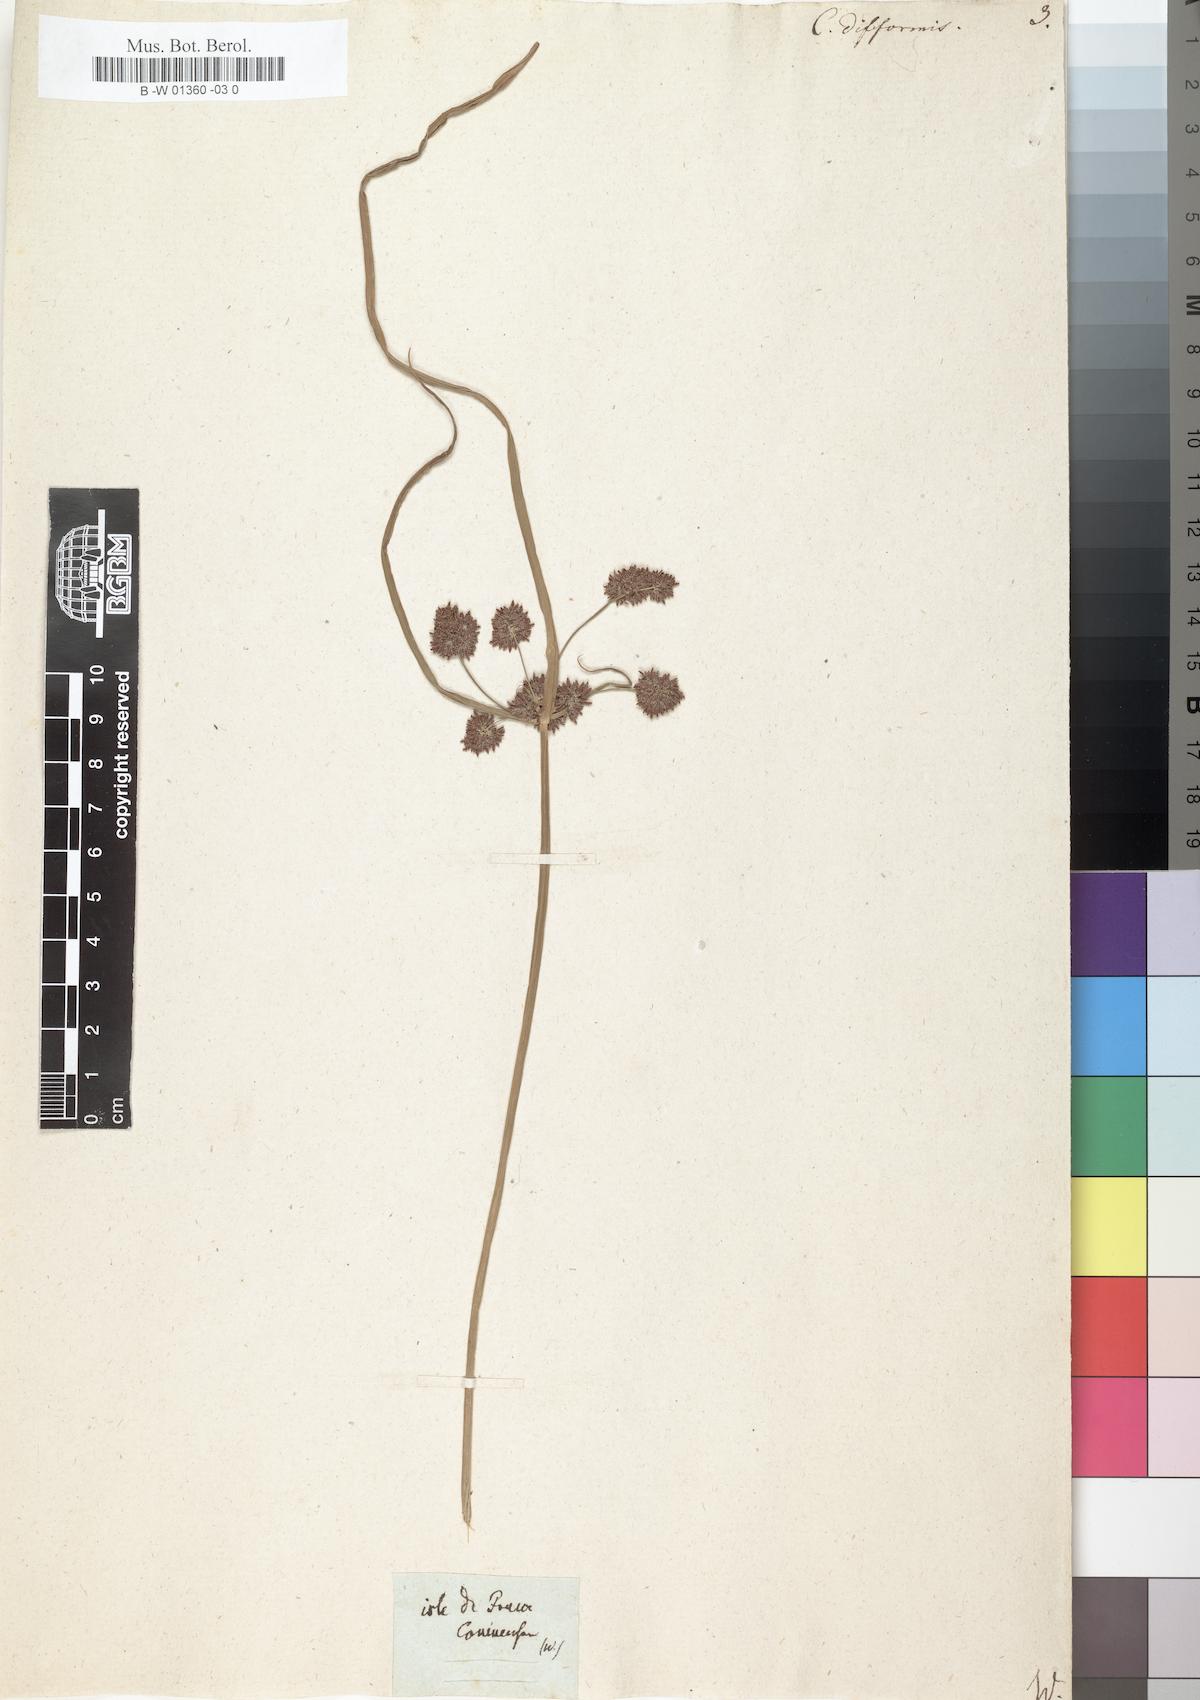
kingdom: Plantae
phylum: Tracheophyta
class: Liliopsida
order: Poales
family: Cyperaceae
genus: Cyperus
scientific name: Cyperus difformis
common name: Variable flatsedge
